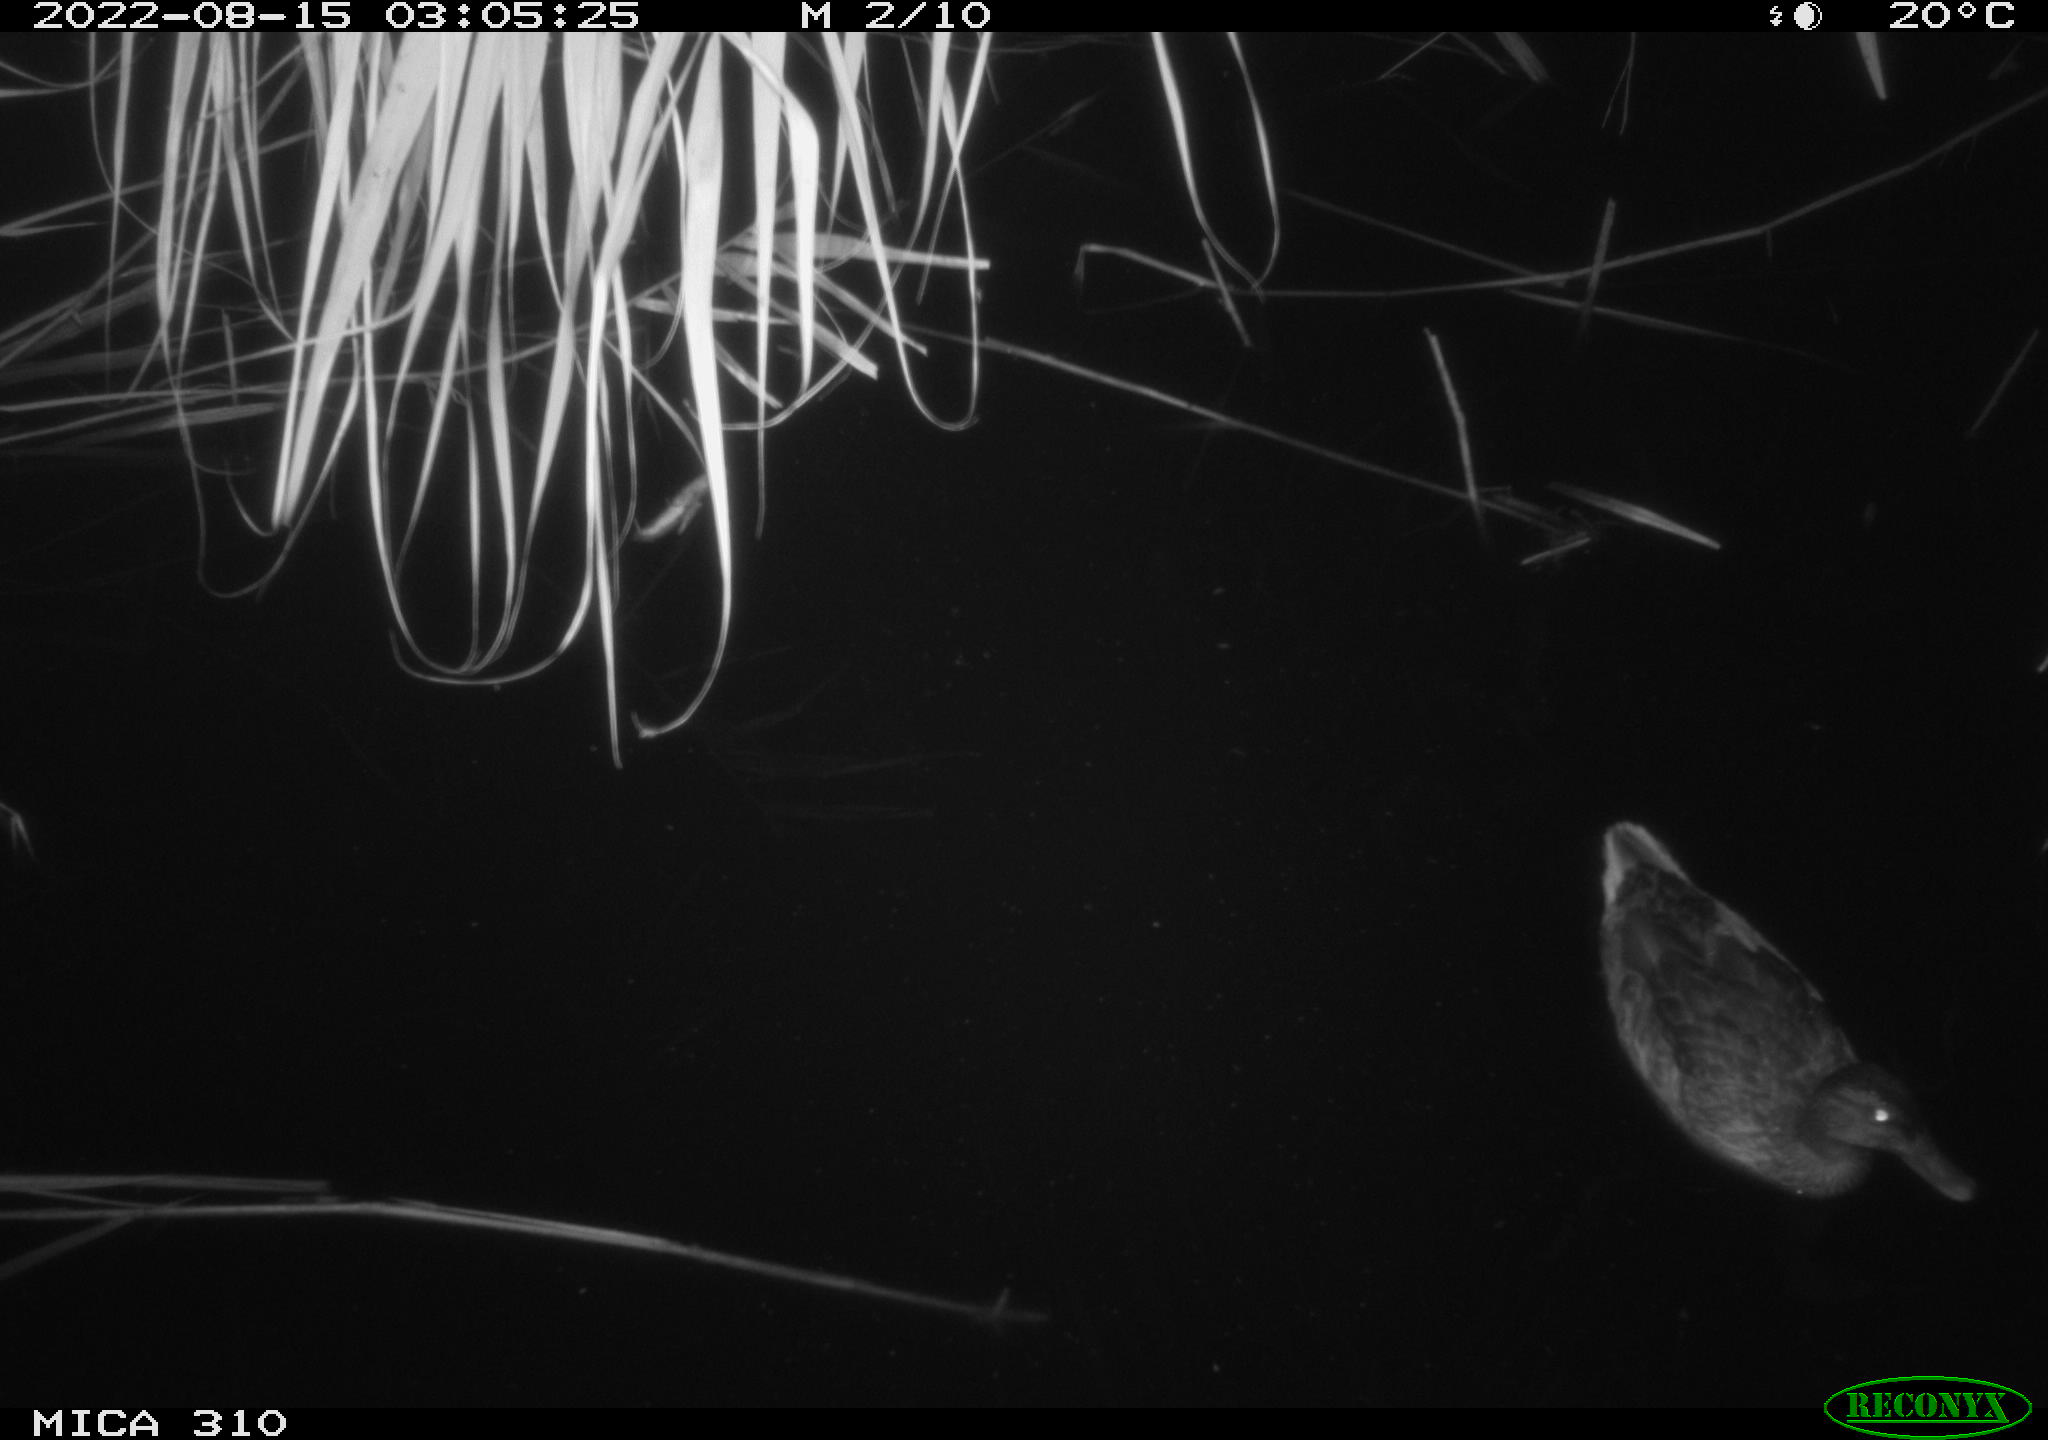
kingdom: Animalia
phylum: Chordata
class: Aves
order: Anseriformes
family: Anatidae
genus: Anas
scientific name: Anas platyrhynchos
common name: Mallard
